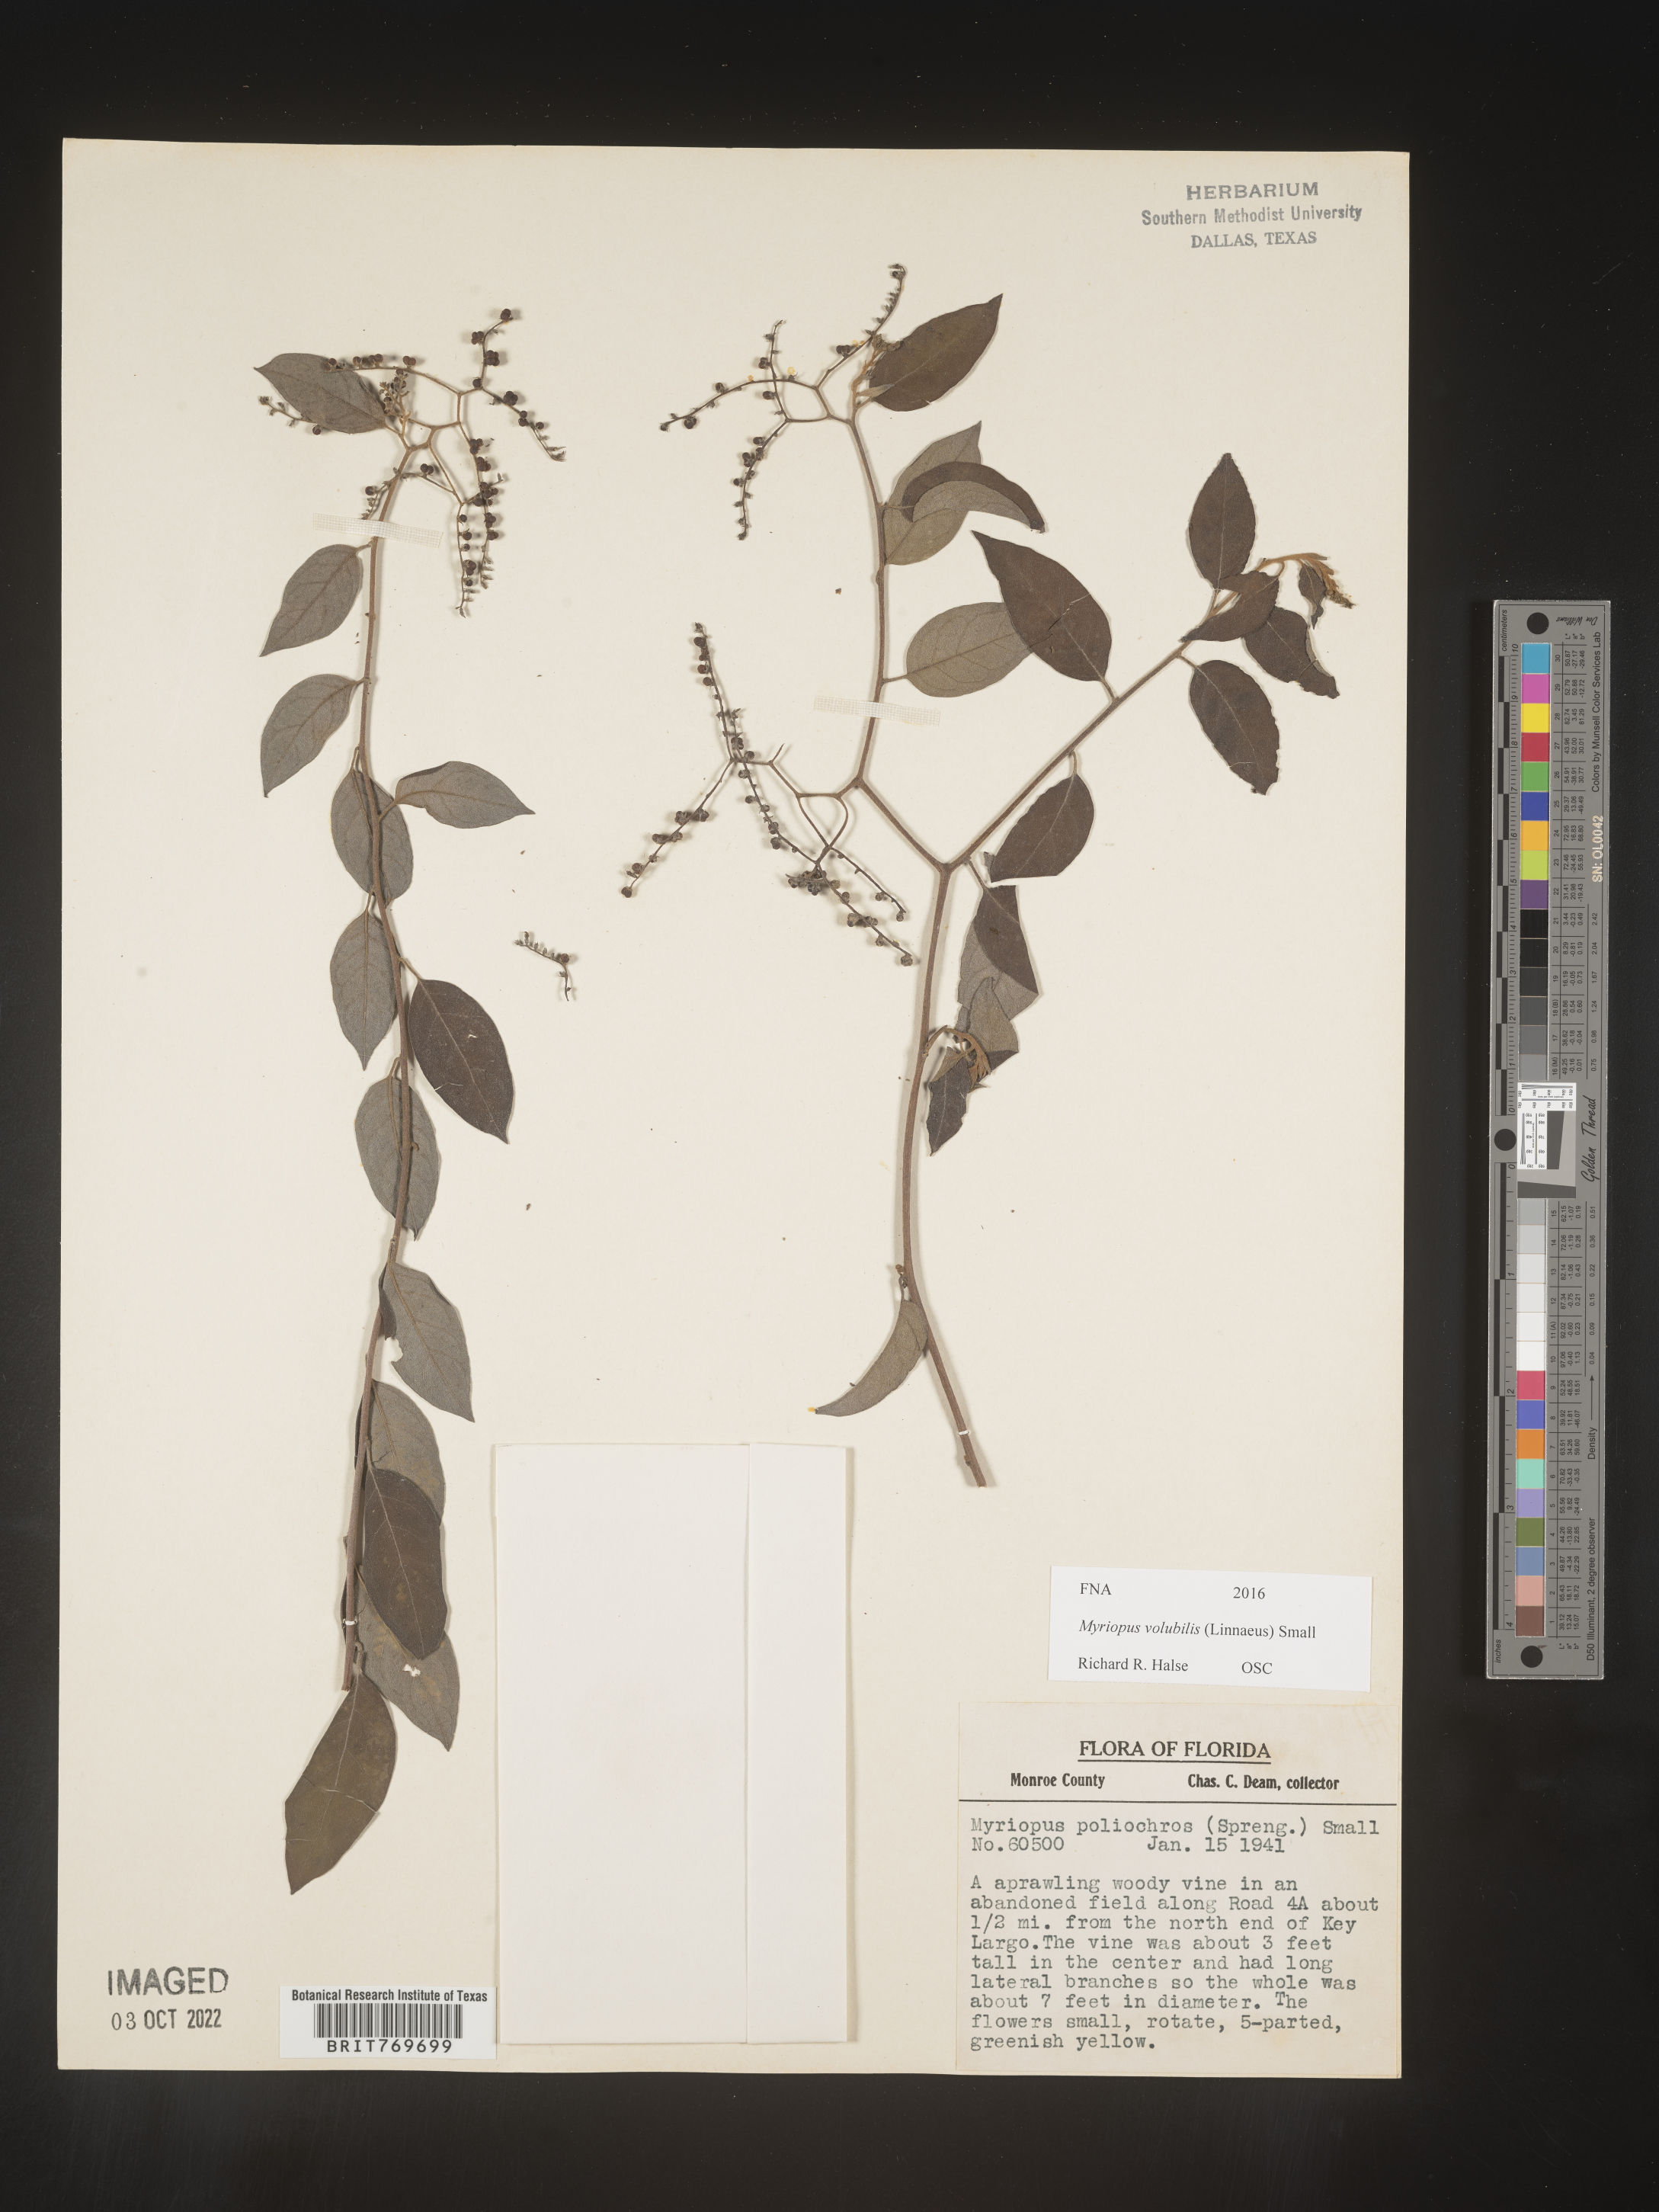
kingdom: Plantae
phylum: Tracheophyta
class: Magnoliopsida
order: Boraginales
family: Heliotropiaceae
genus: Myriopus
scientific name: Myriopus
